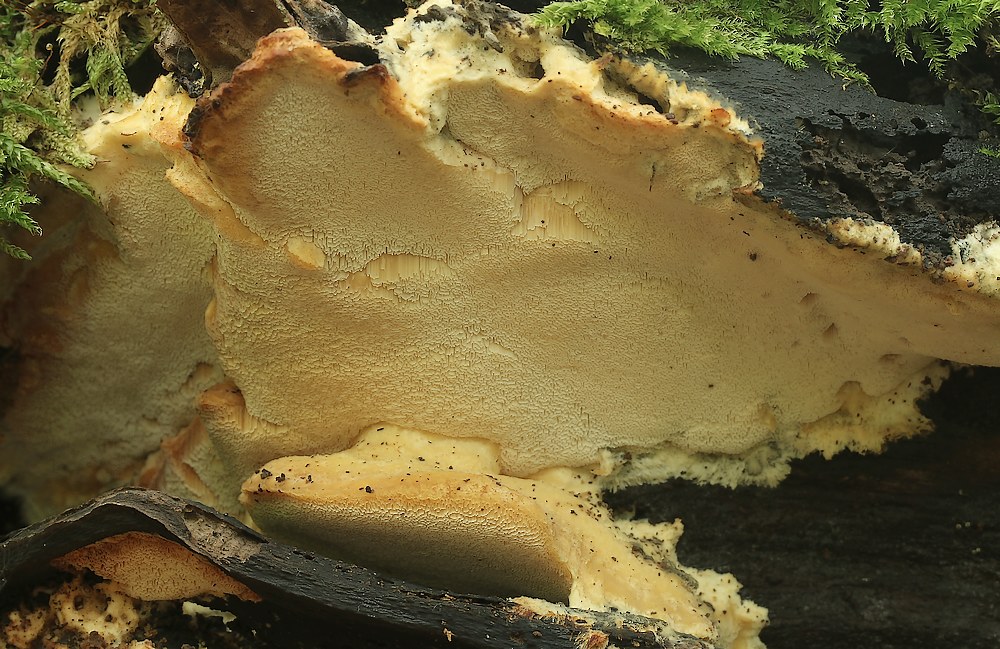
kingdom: Fungi
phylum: Basidiomycota
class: Agaricomycetes
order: Polyporales
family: Steccherinaceae
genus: Antrodiella
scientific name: Antrodiella mentschulensis
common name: abrikosporesvamp
